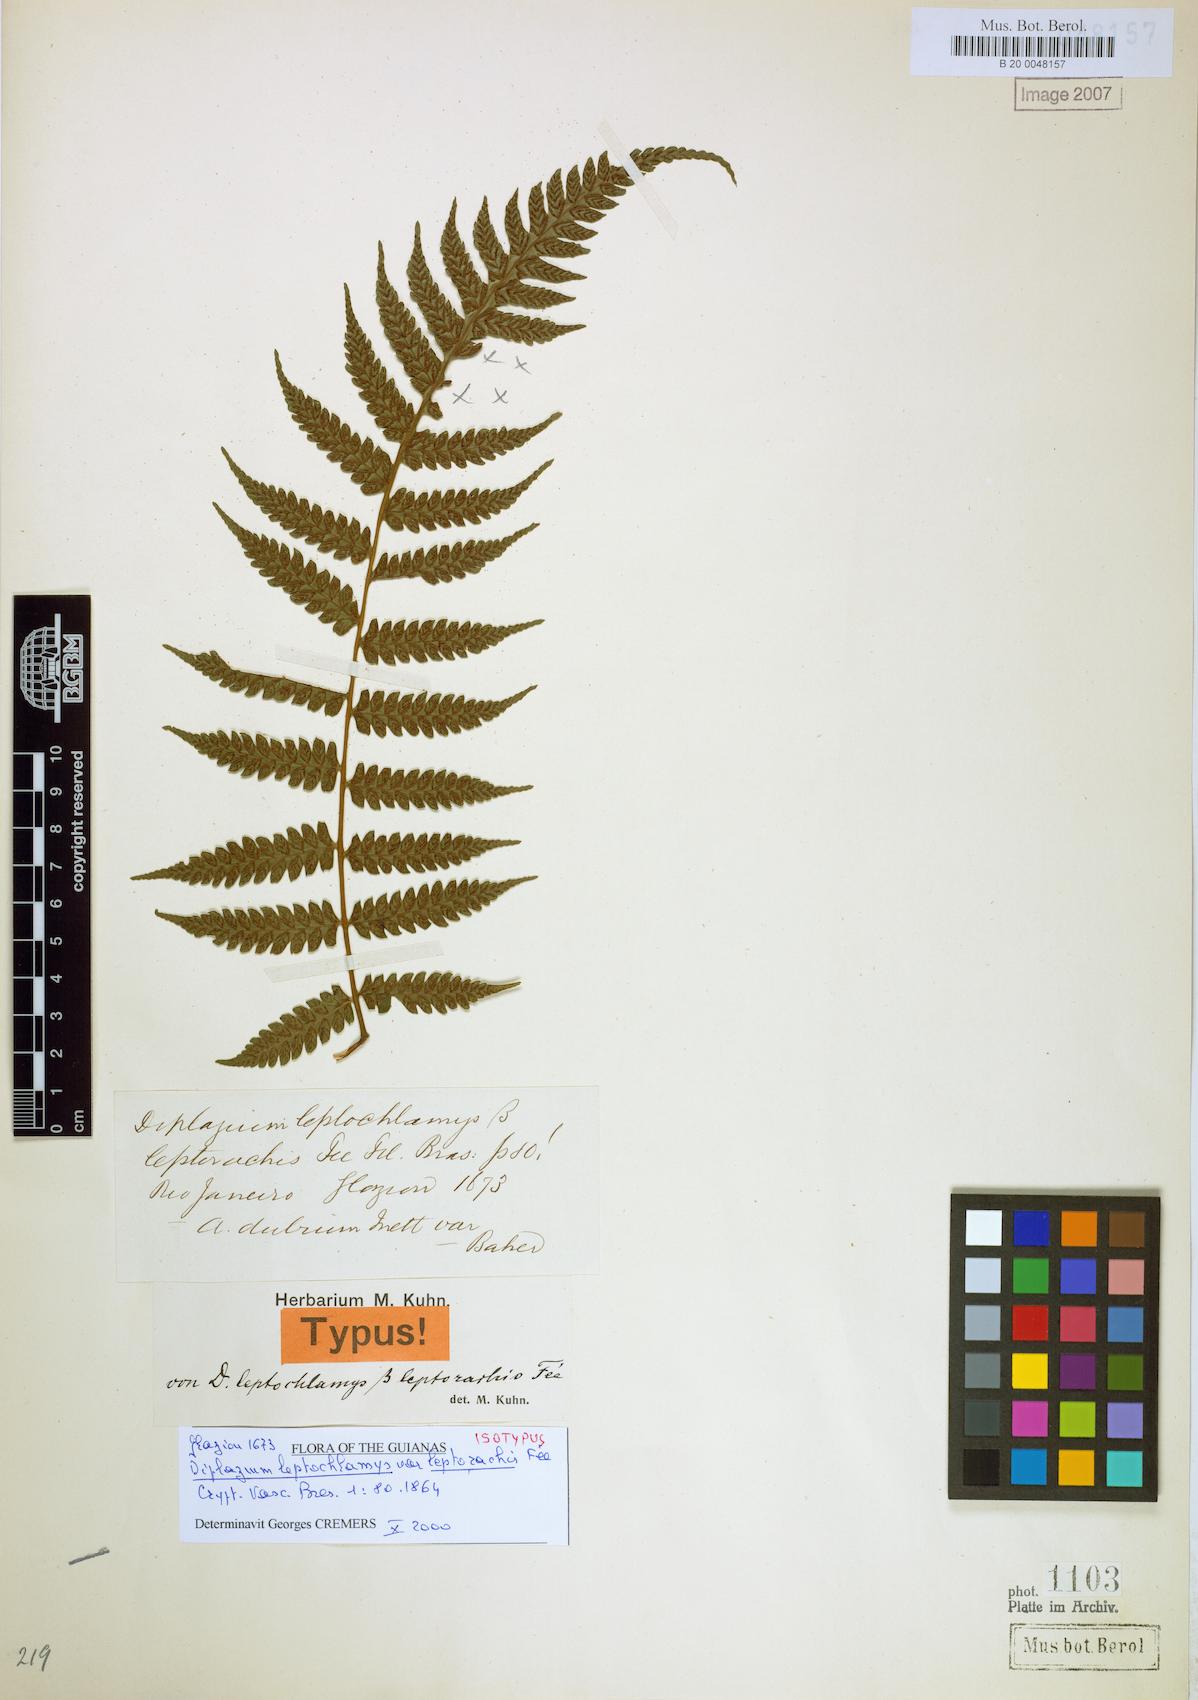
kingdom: Plantae
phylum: Tracheophyta
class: Polypodiopsida
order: Polypodiales
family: Athyriaceae
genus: Diplazium
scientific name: Diplazium ambiguum
